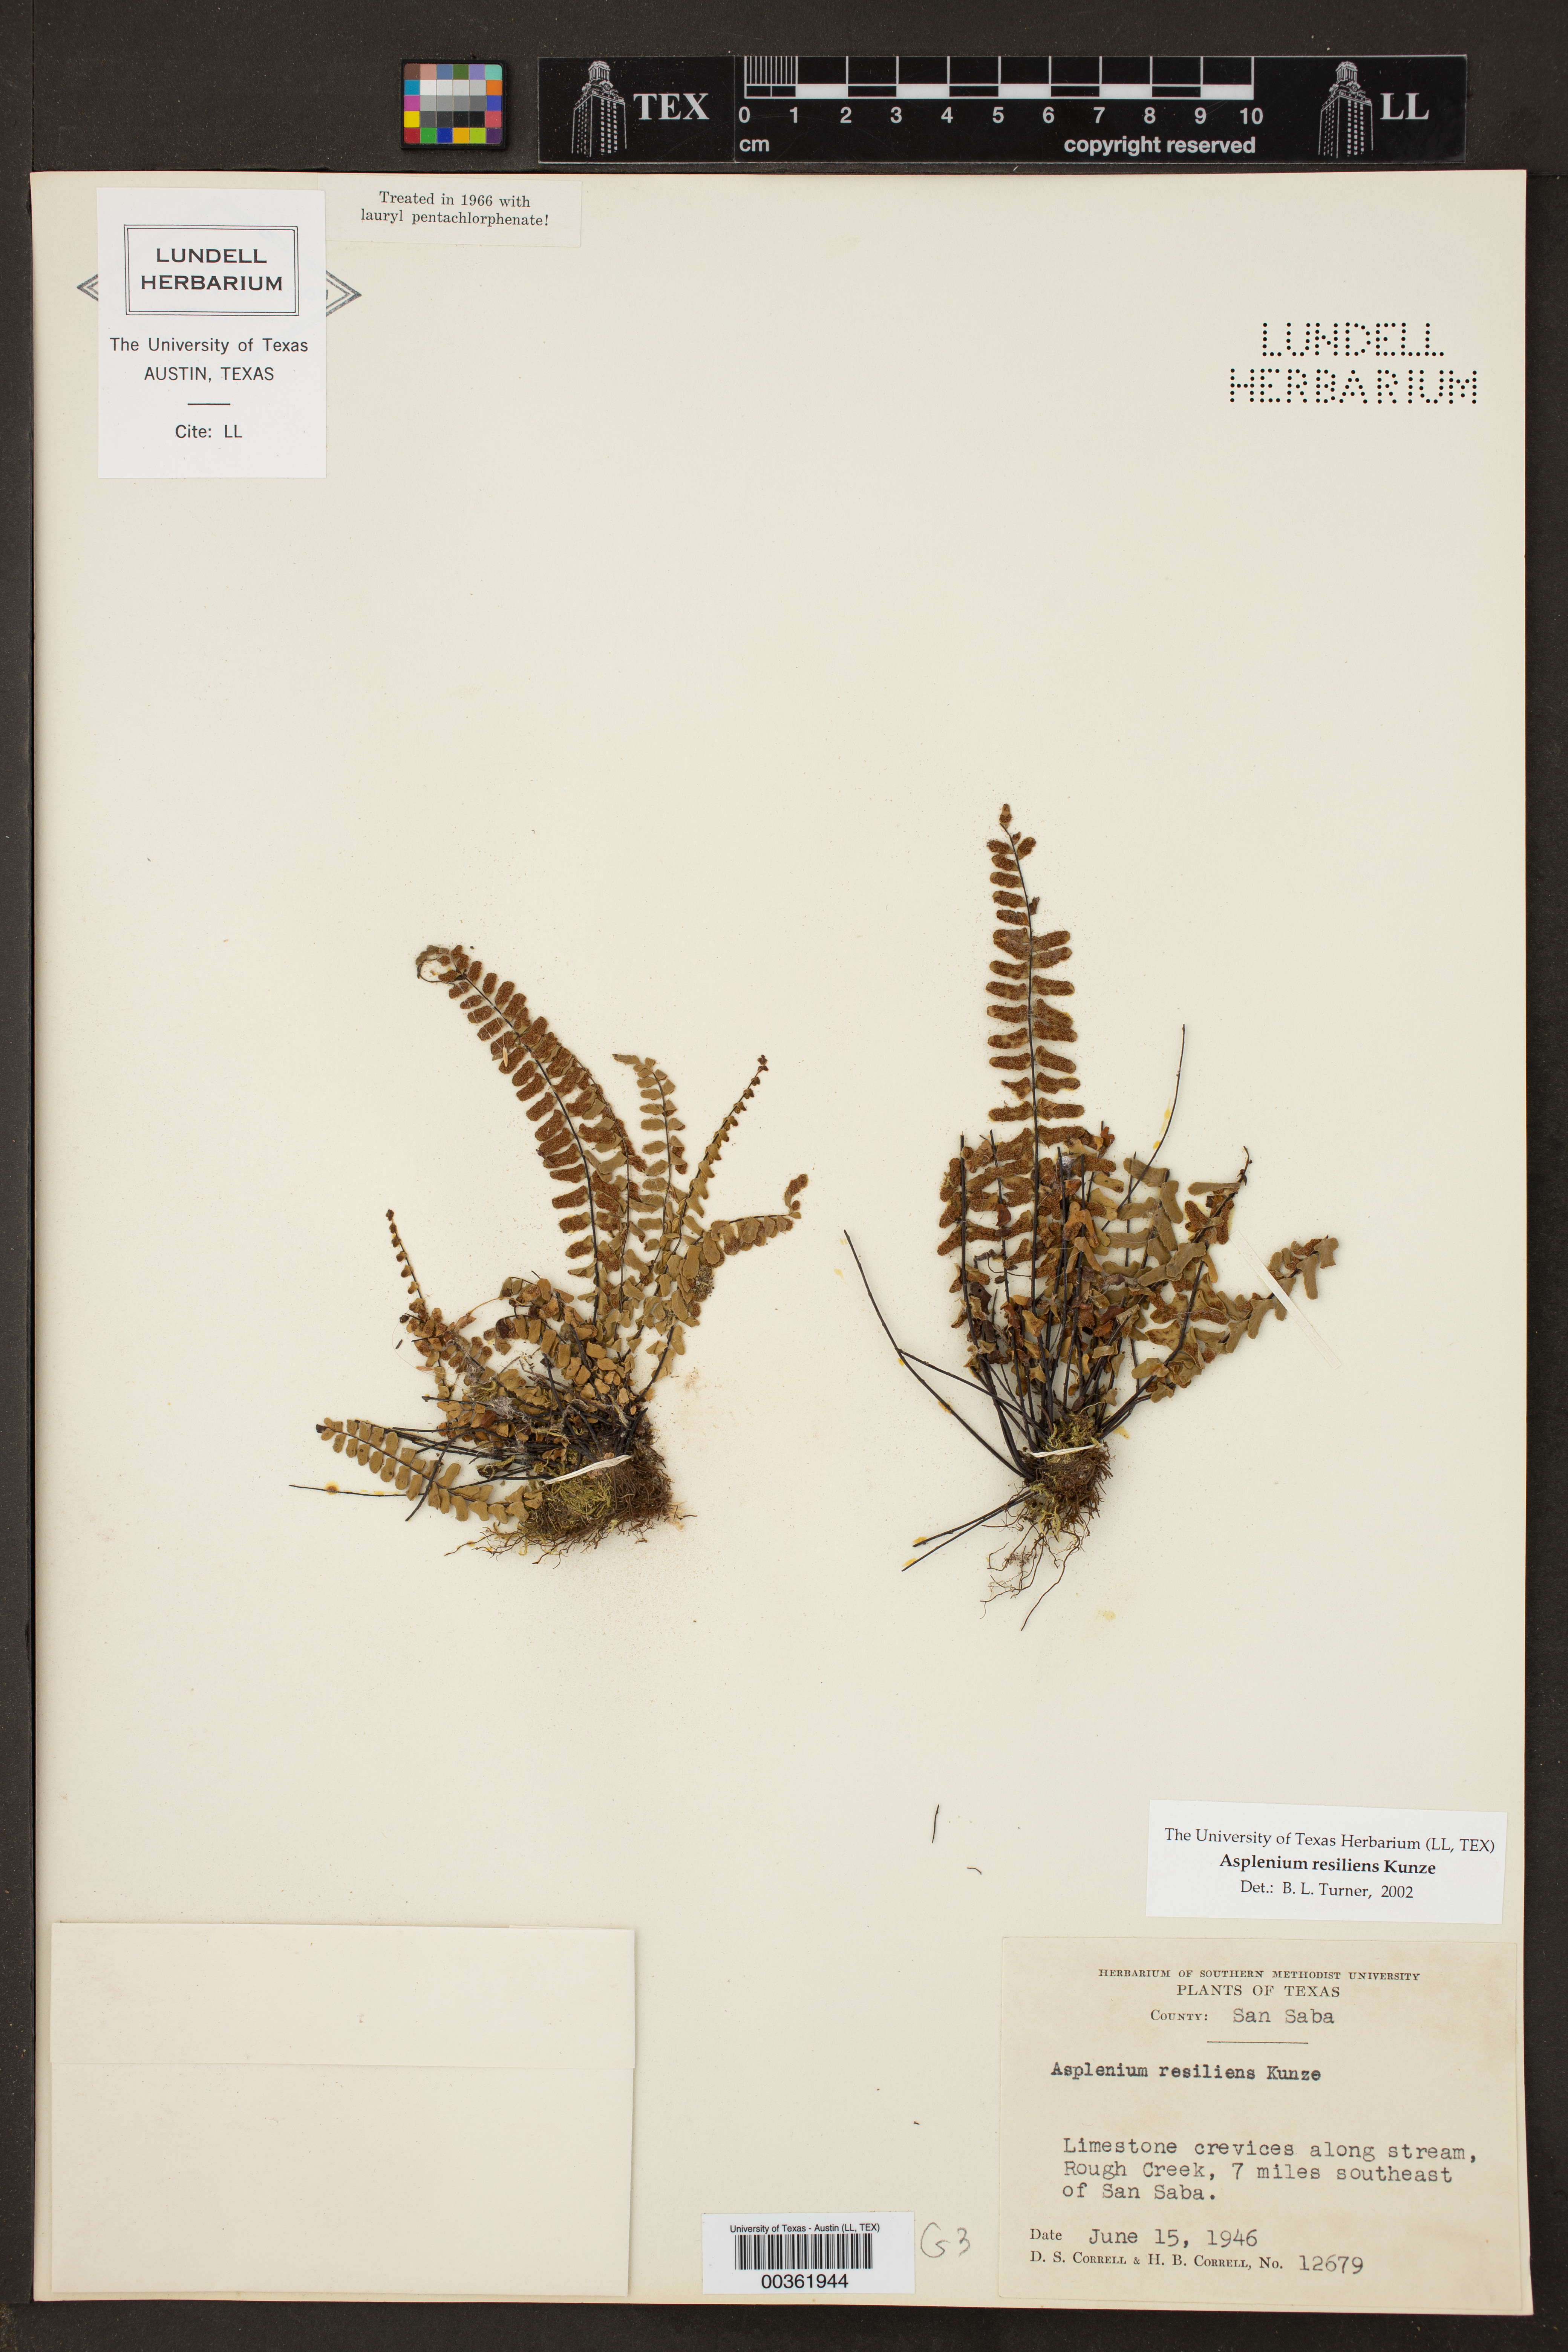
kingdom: Plantae
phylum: Tracheophyta
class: Polypodiopsida
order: Polypodiales
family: Aspleniaceae
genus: Asplenium
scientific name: Asplenium resiliens
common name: Blackstem spleenwort
